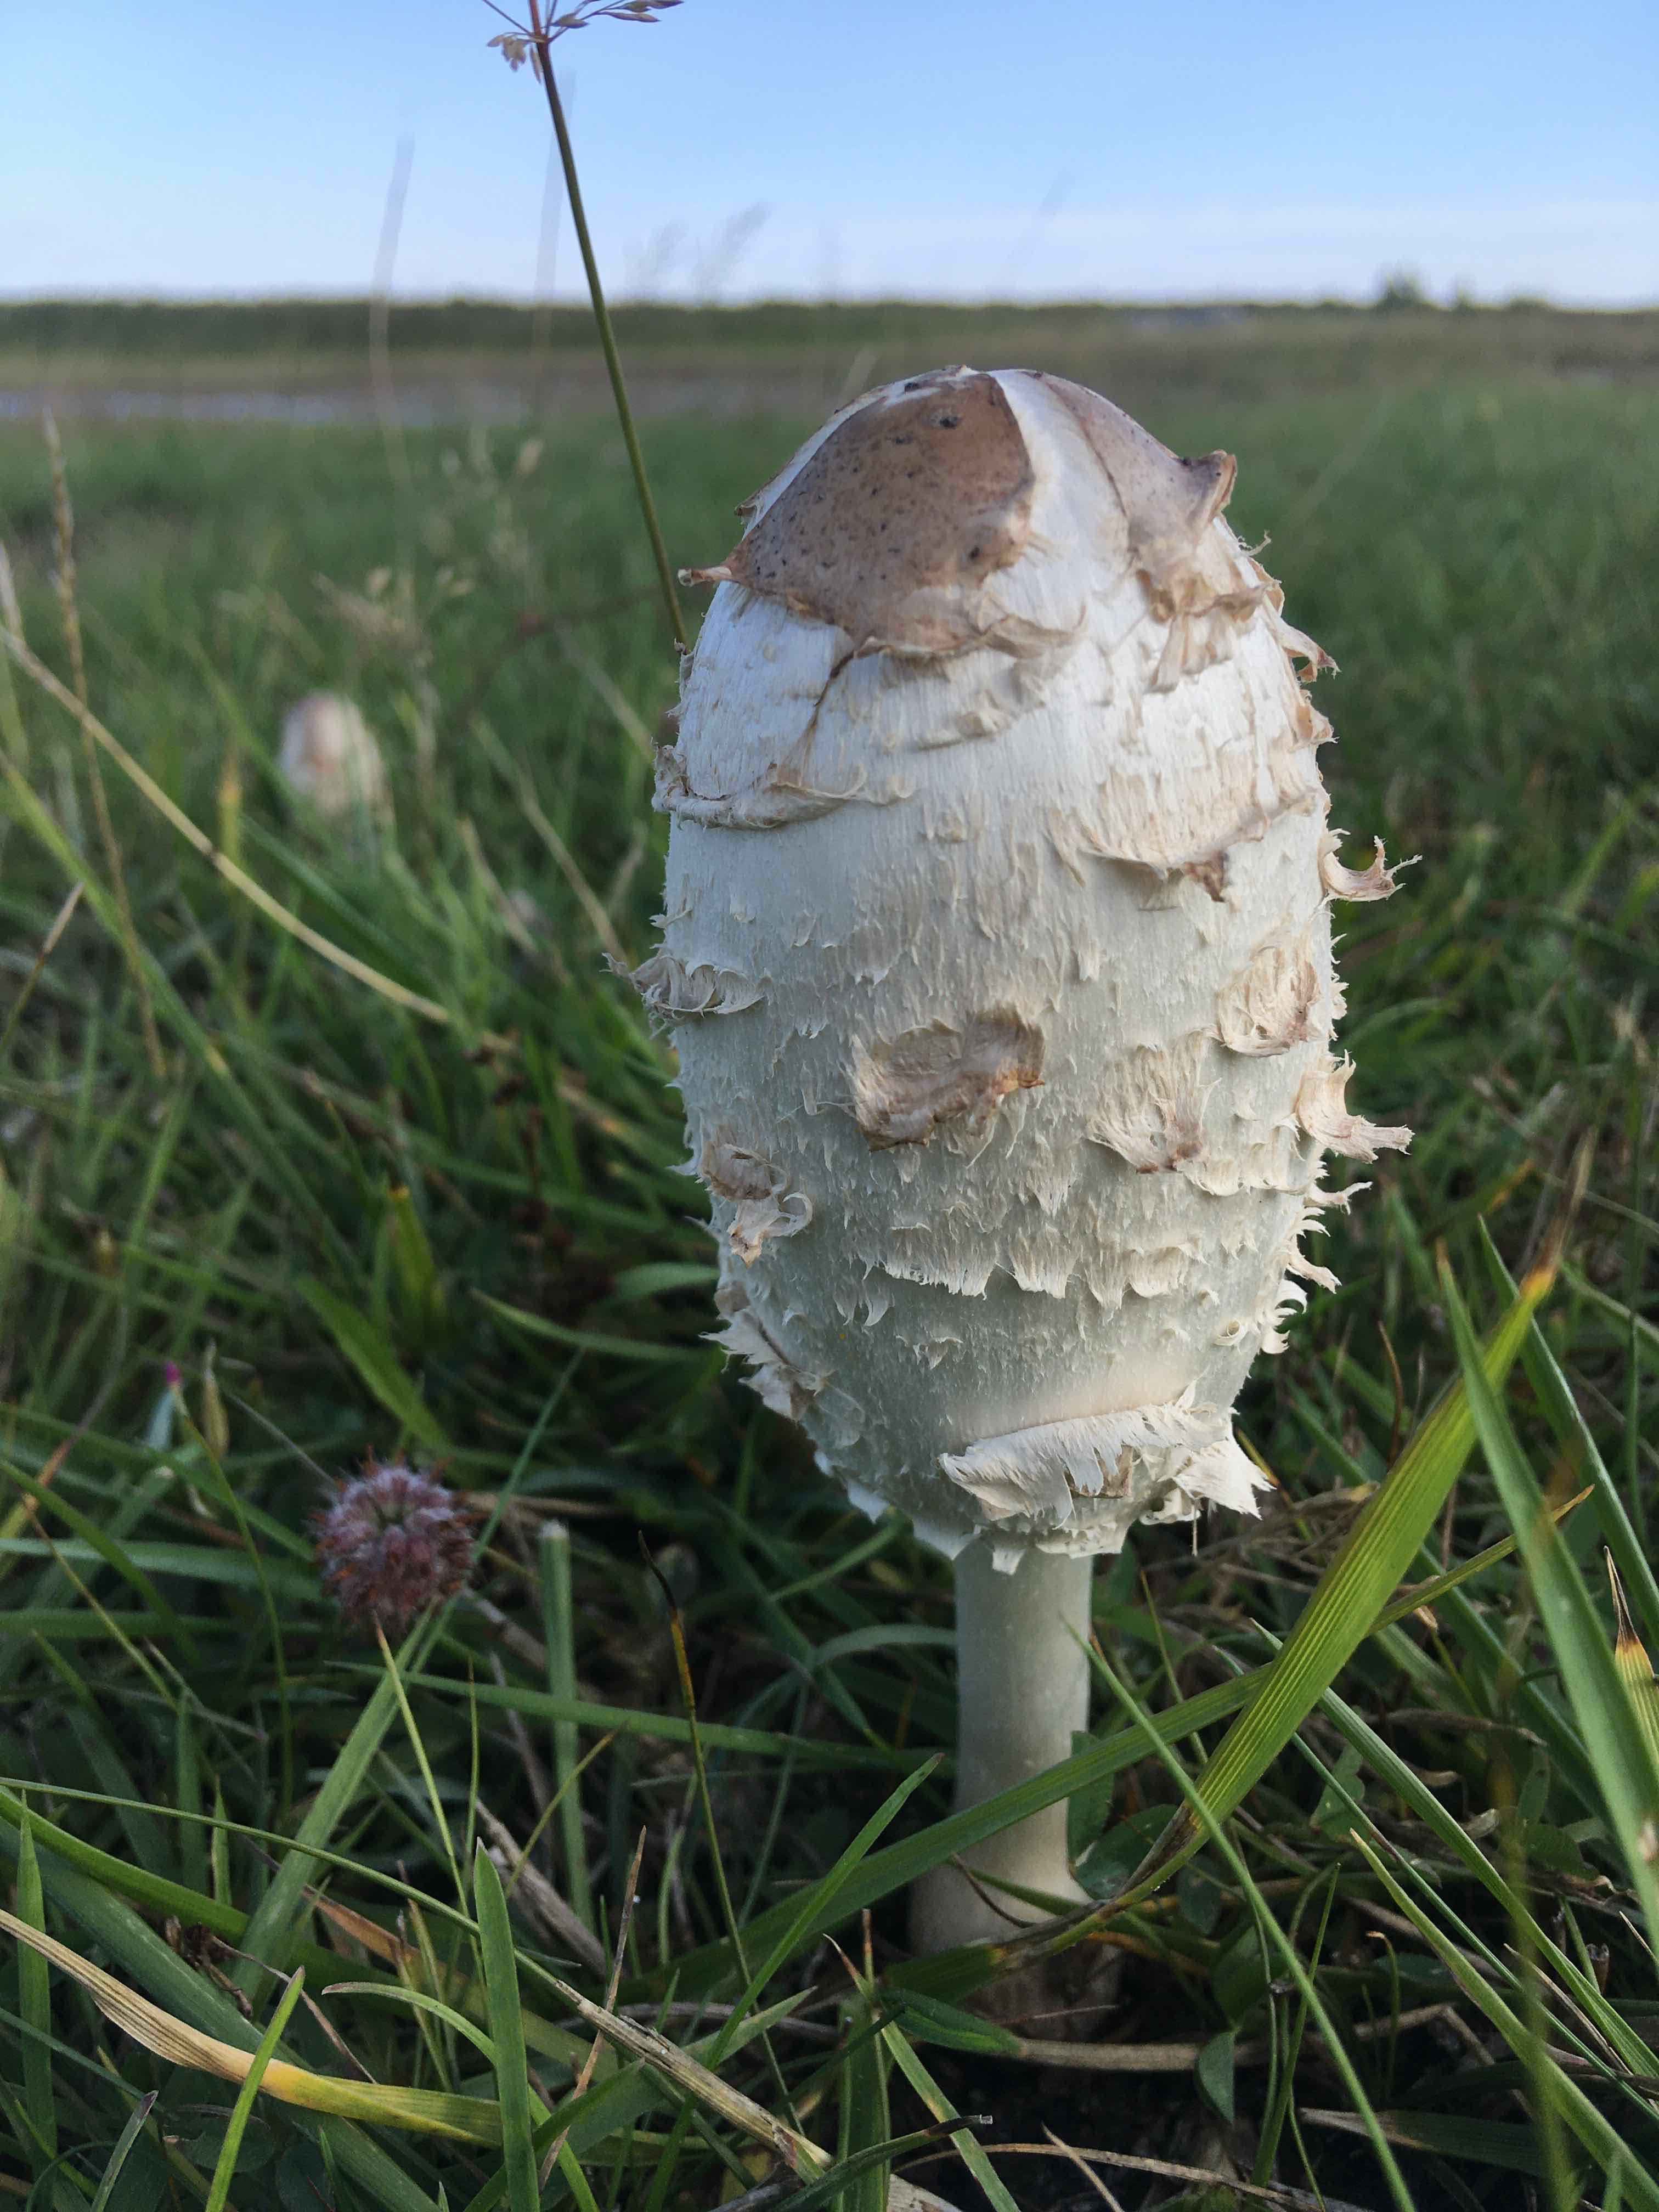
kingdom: Fungi
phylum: Basidiomycota
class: Agaricomycetes
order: Agaricales
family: Agaricaceae
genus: Coprinus
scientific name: Coprinus comatus
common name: stor parykhat
